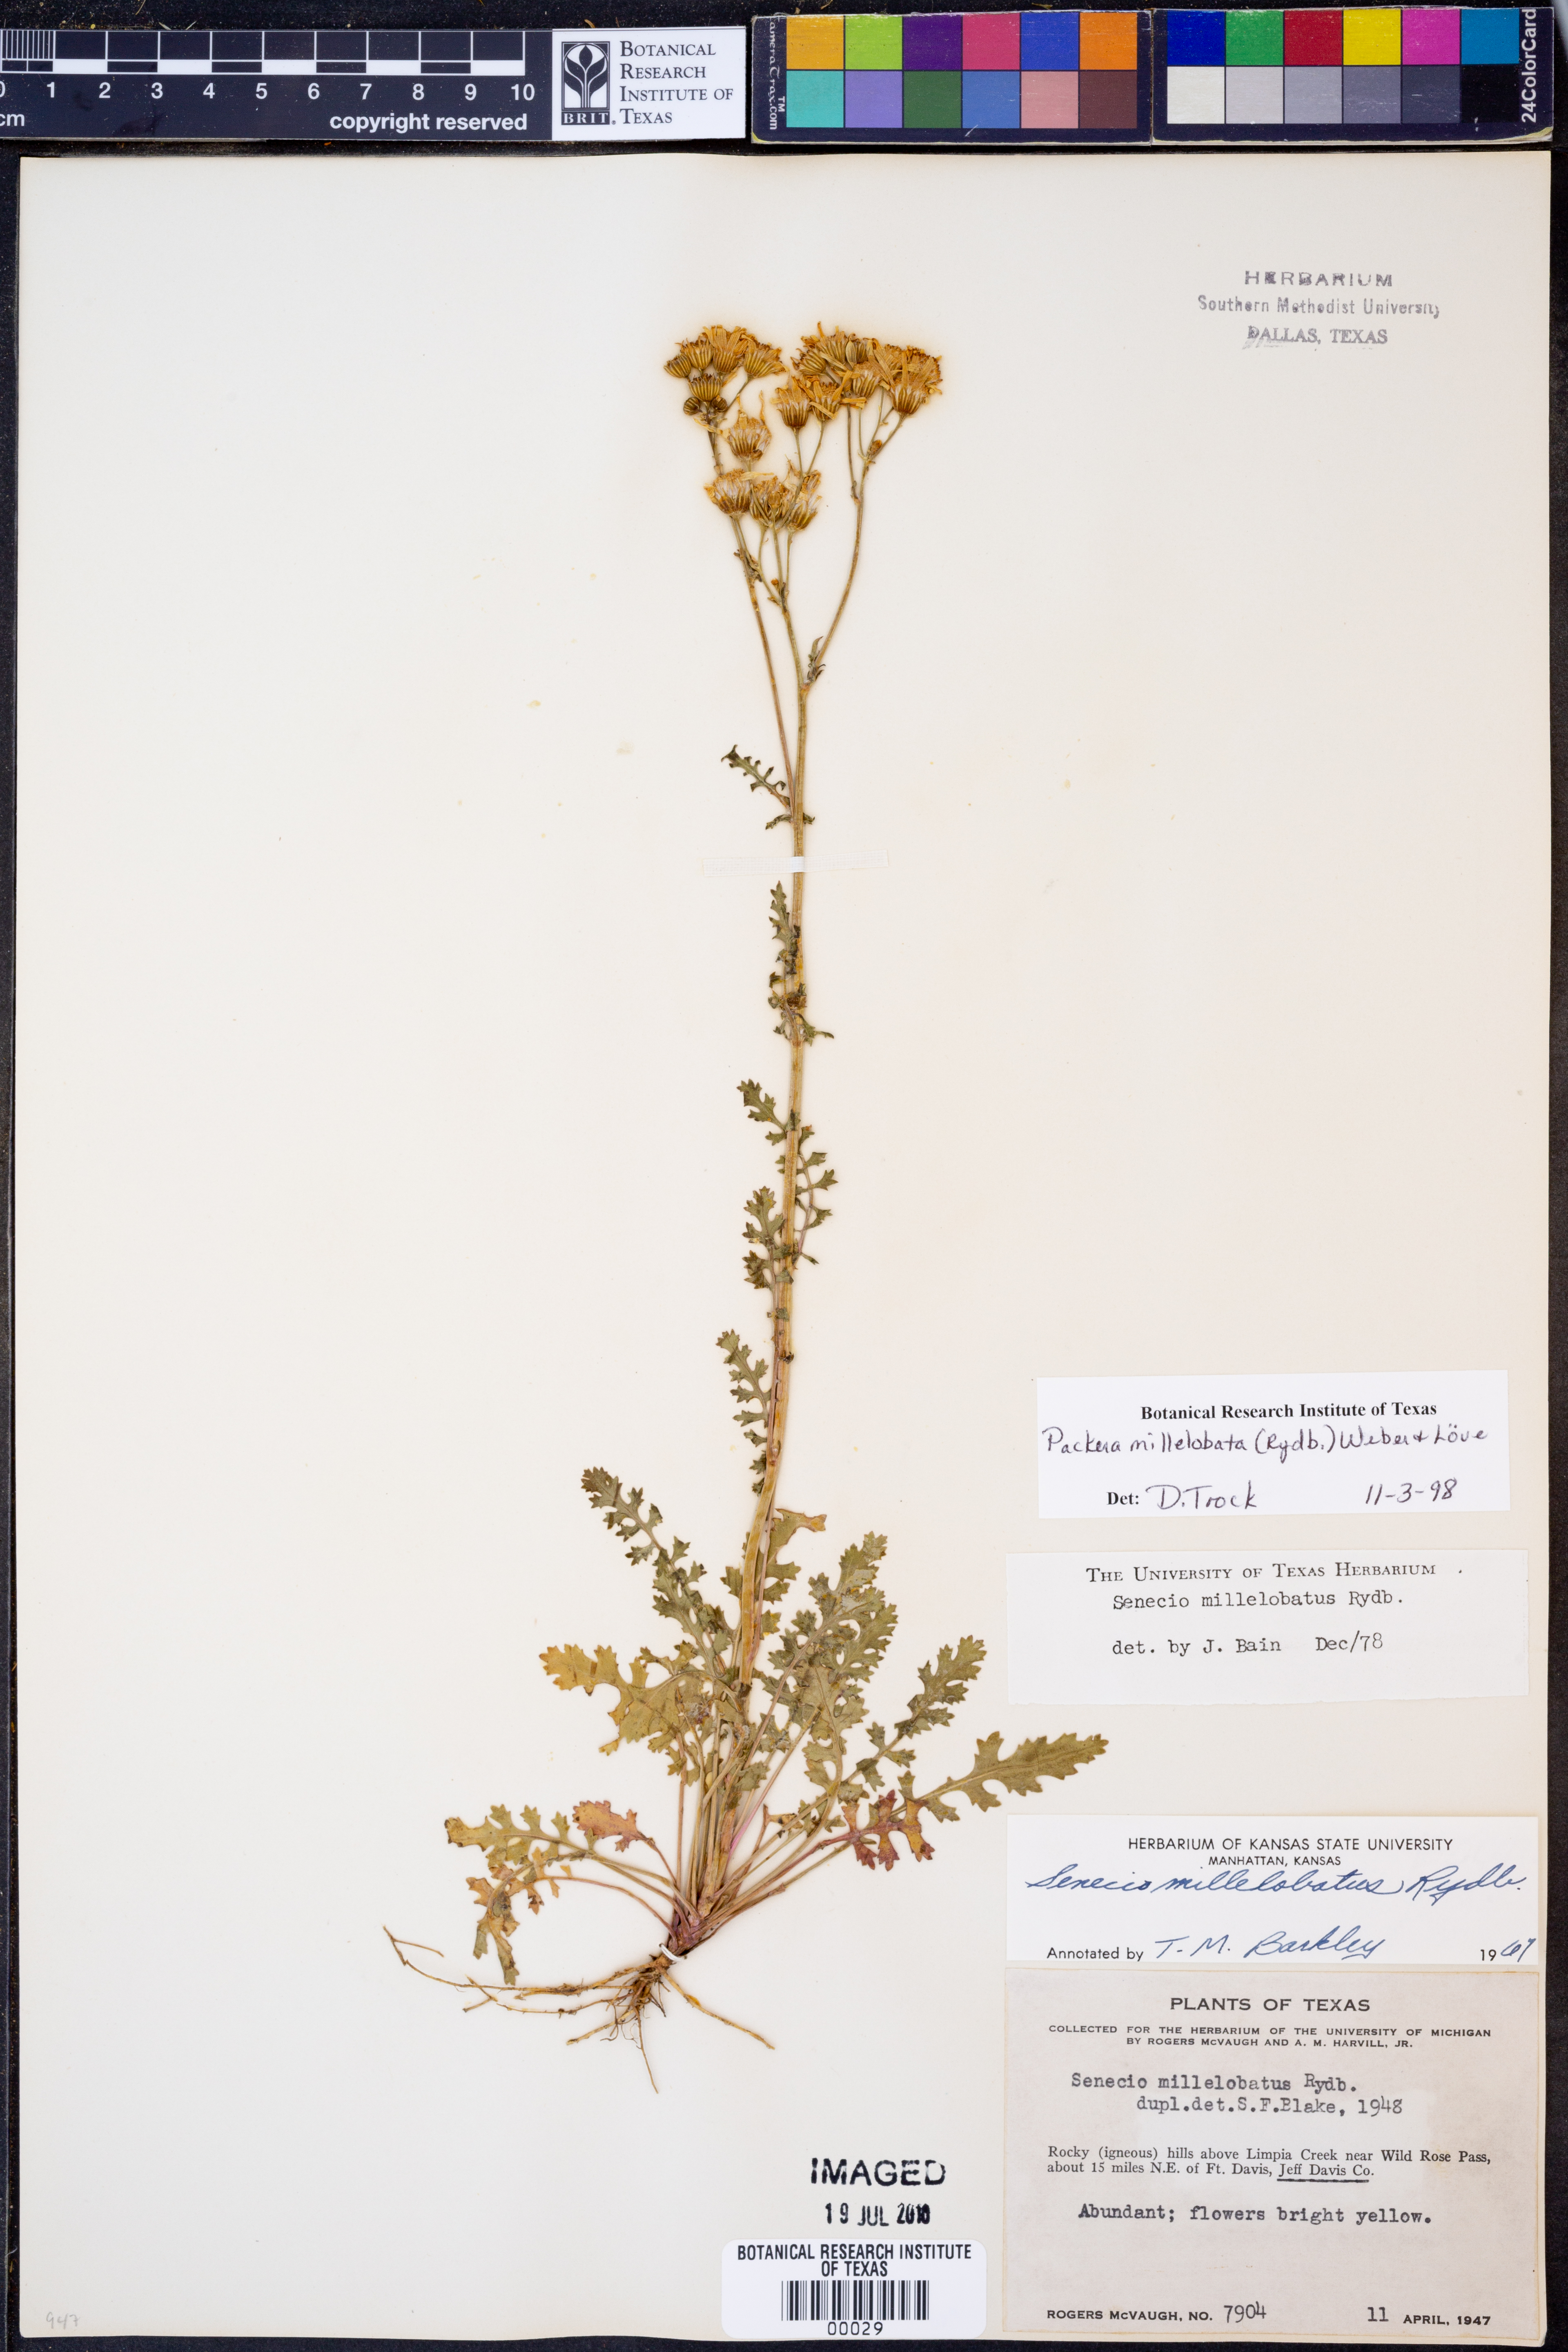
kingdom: Plantae
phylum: Tracheophyta
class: Magnoliopsida
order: Asterales
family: Asteraceae
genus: Packera
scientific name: Packera millelobata
